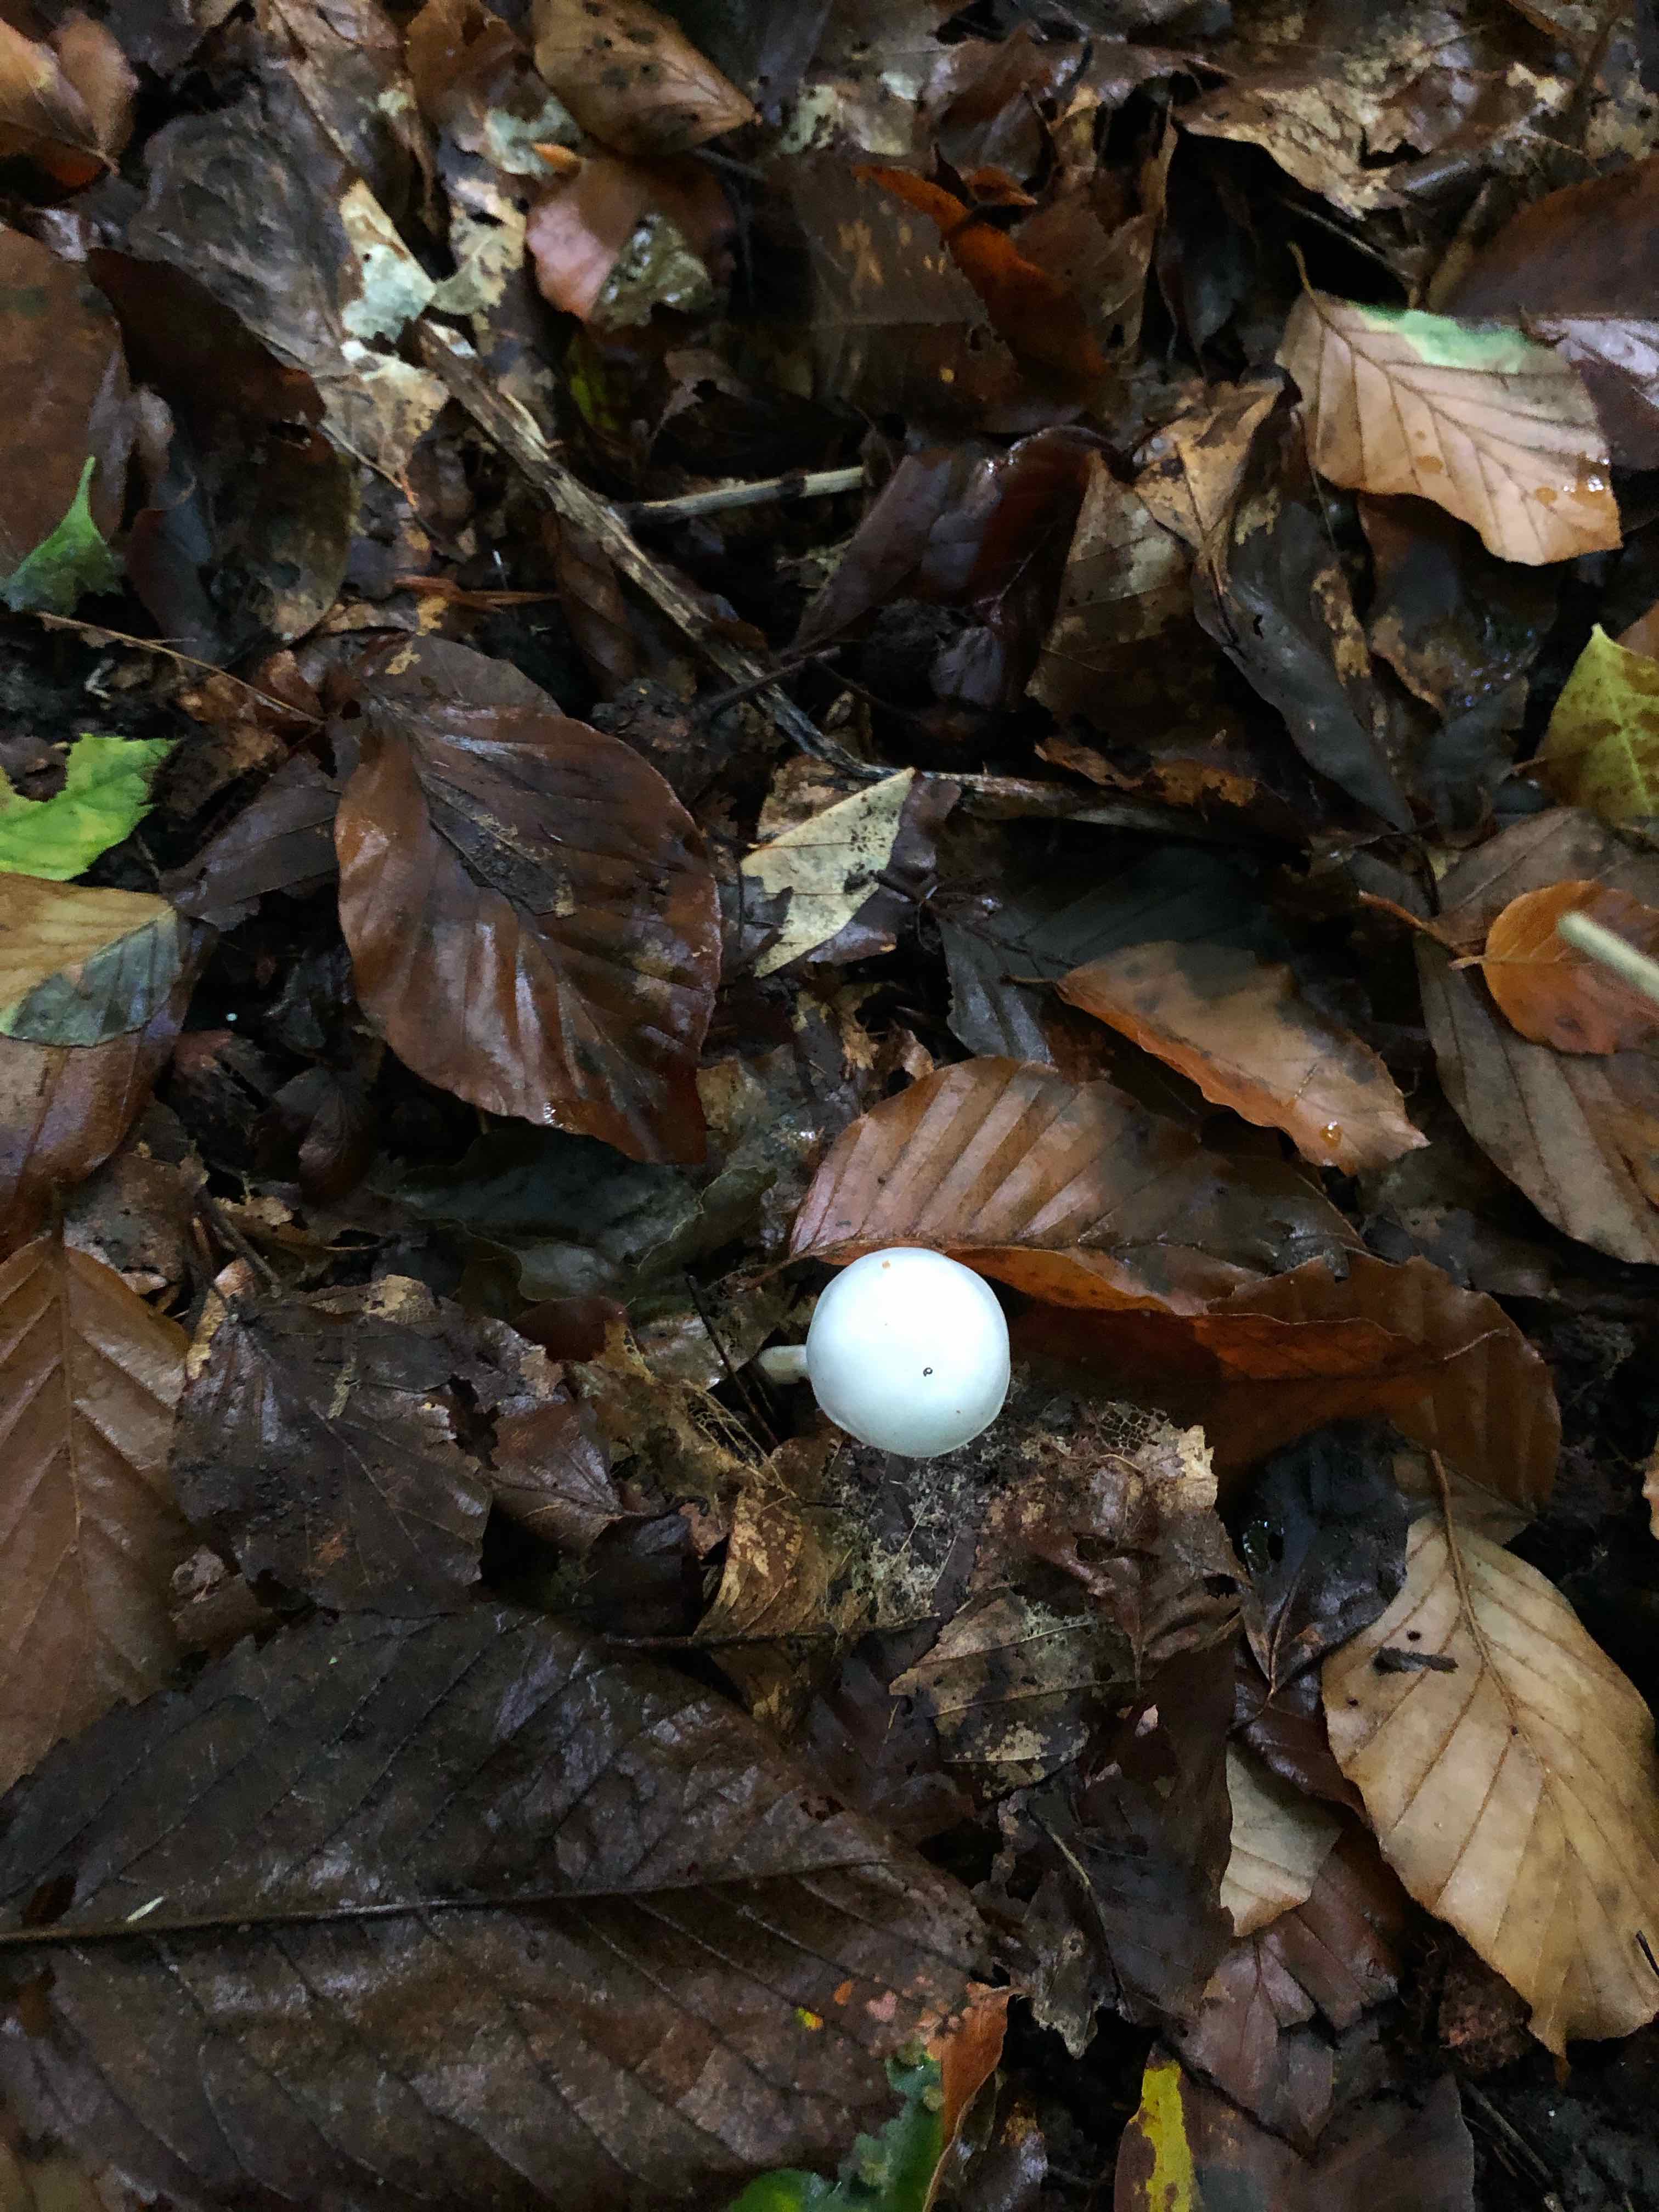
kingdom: Fungi
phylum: Basidiomycota
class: Agaricomycetes
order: Agaricales
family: Hygrophoraceae
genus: Hygrophorus
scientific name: Hygrophorus eburneus
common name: elfenbens-sneglehat
